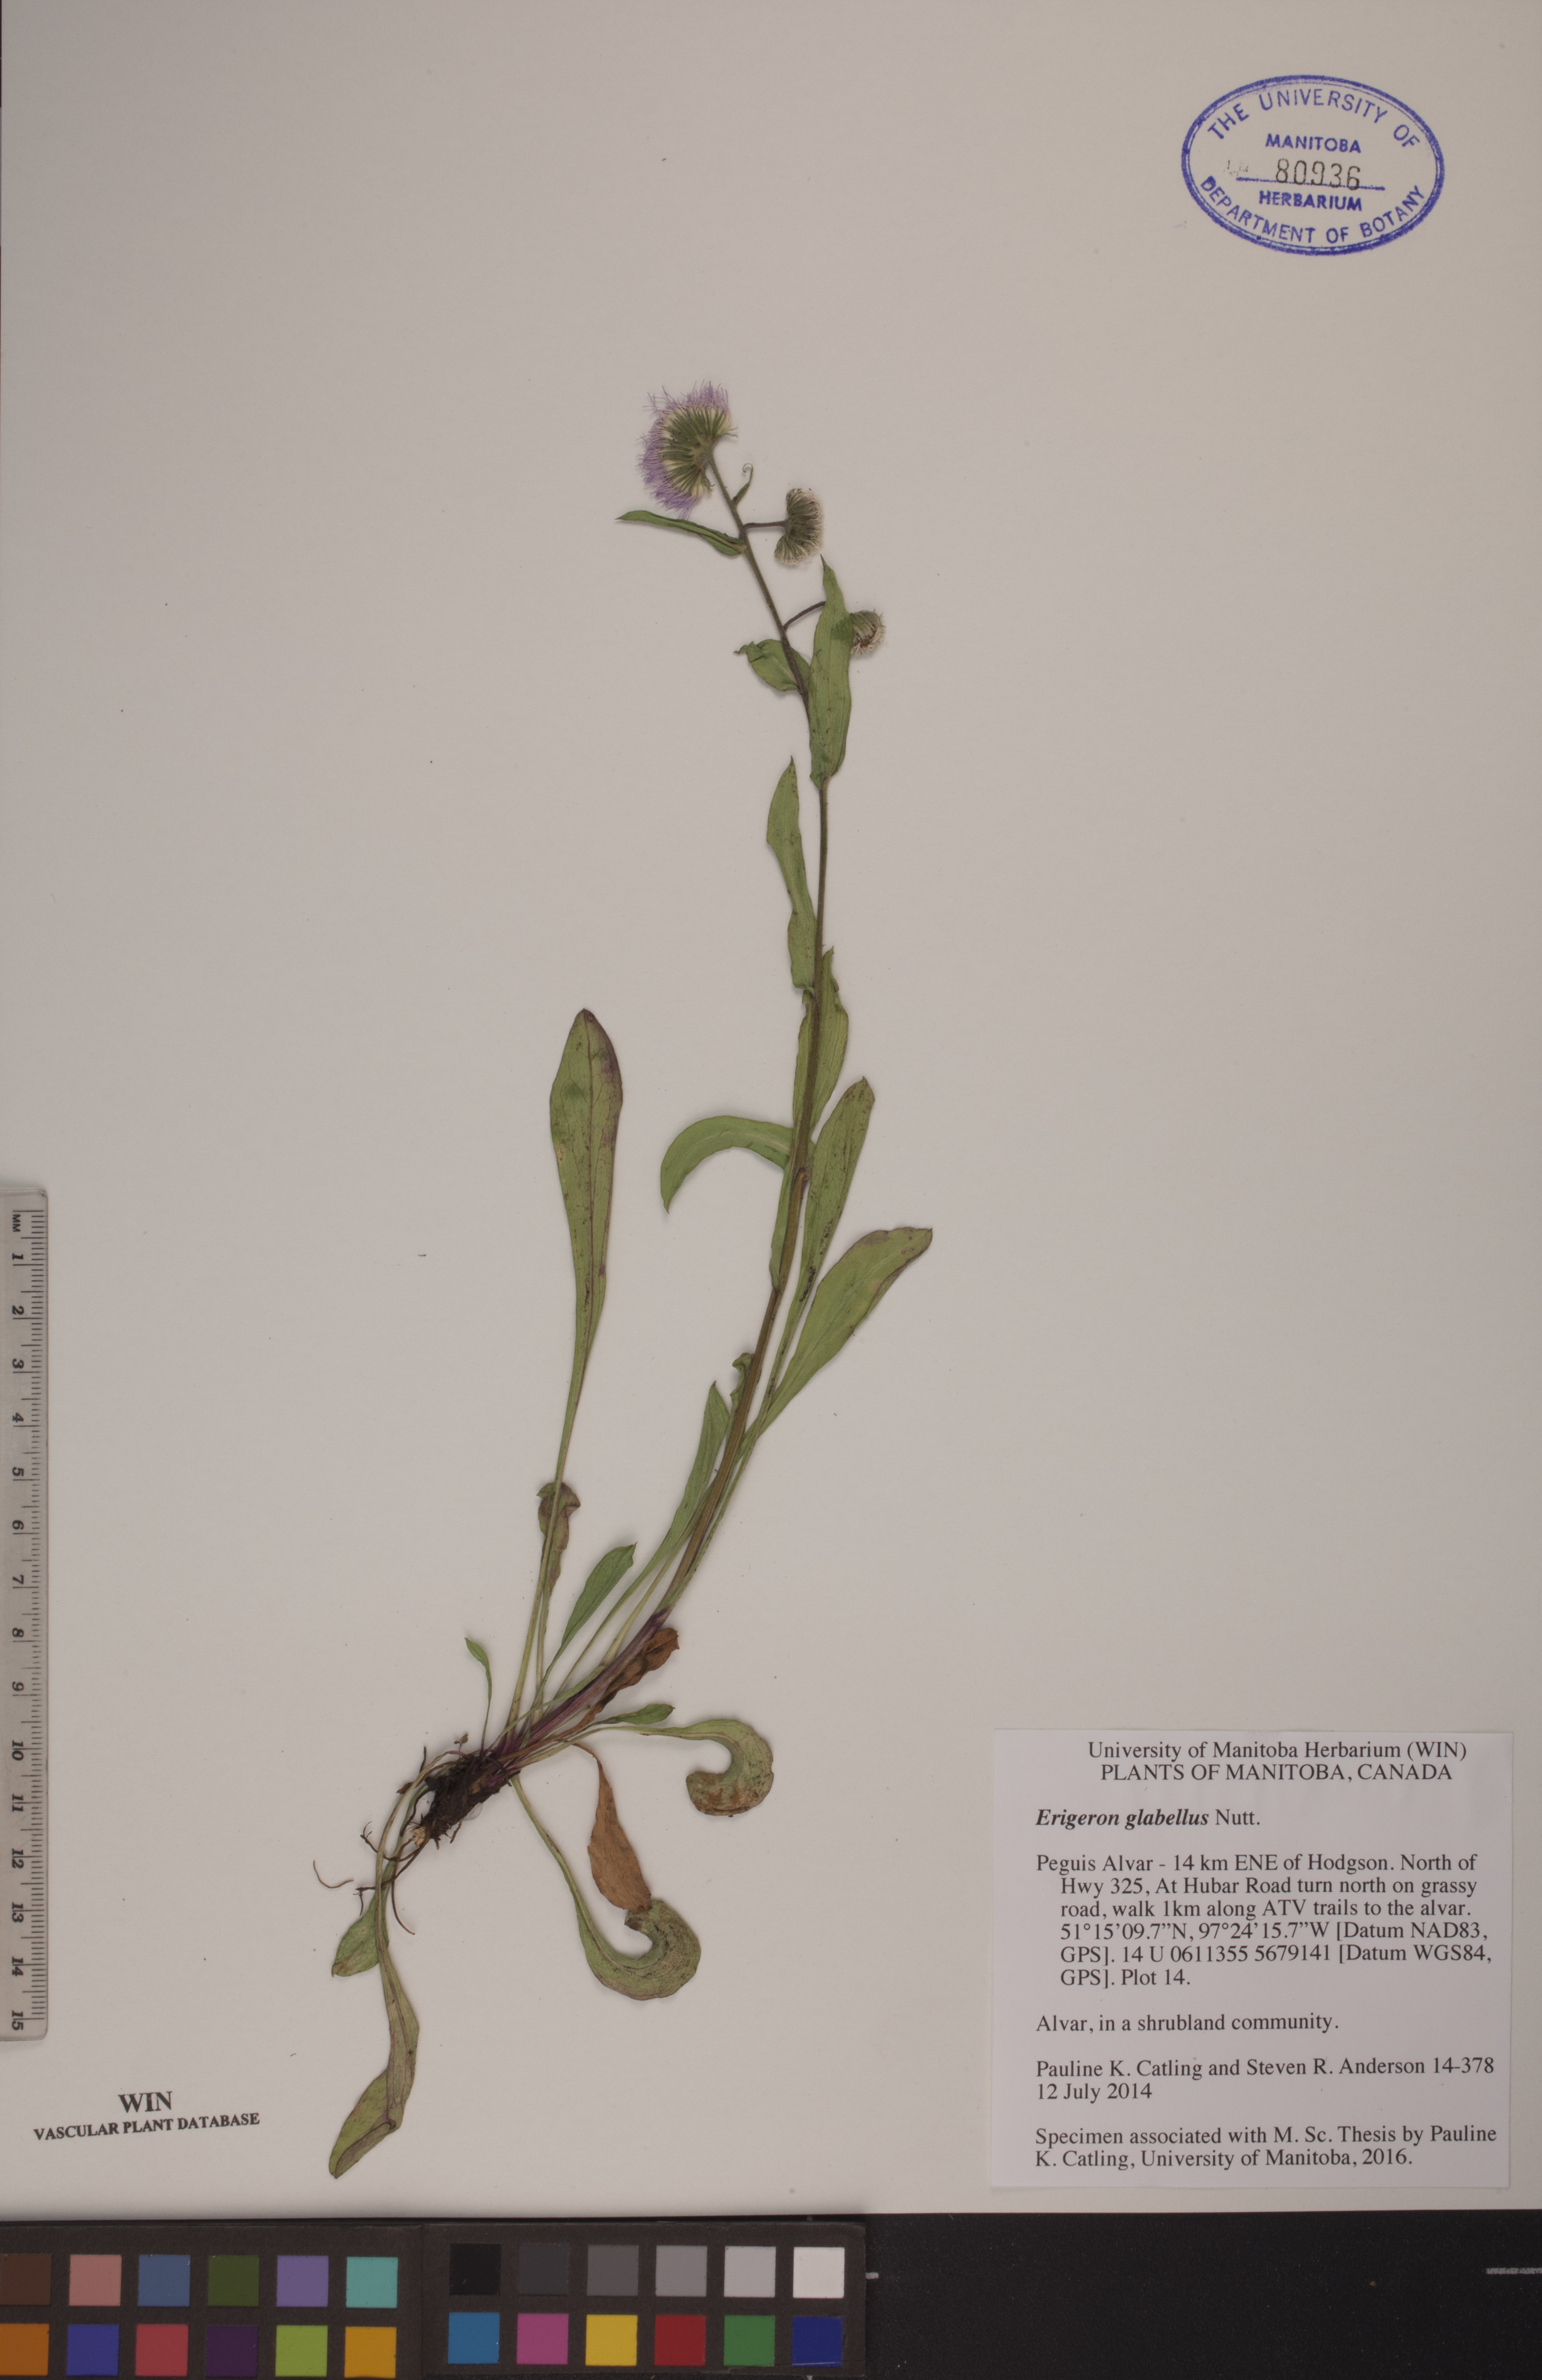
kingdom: Plantae
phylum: Tracheophyta
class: Magnoliopsida
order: Asterales
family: Asteraceae
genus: Erigeron
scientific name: Erigeron glabellus
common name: Smooth fleabane
